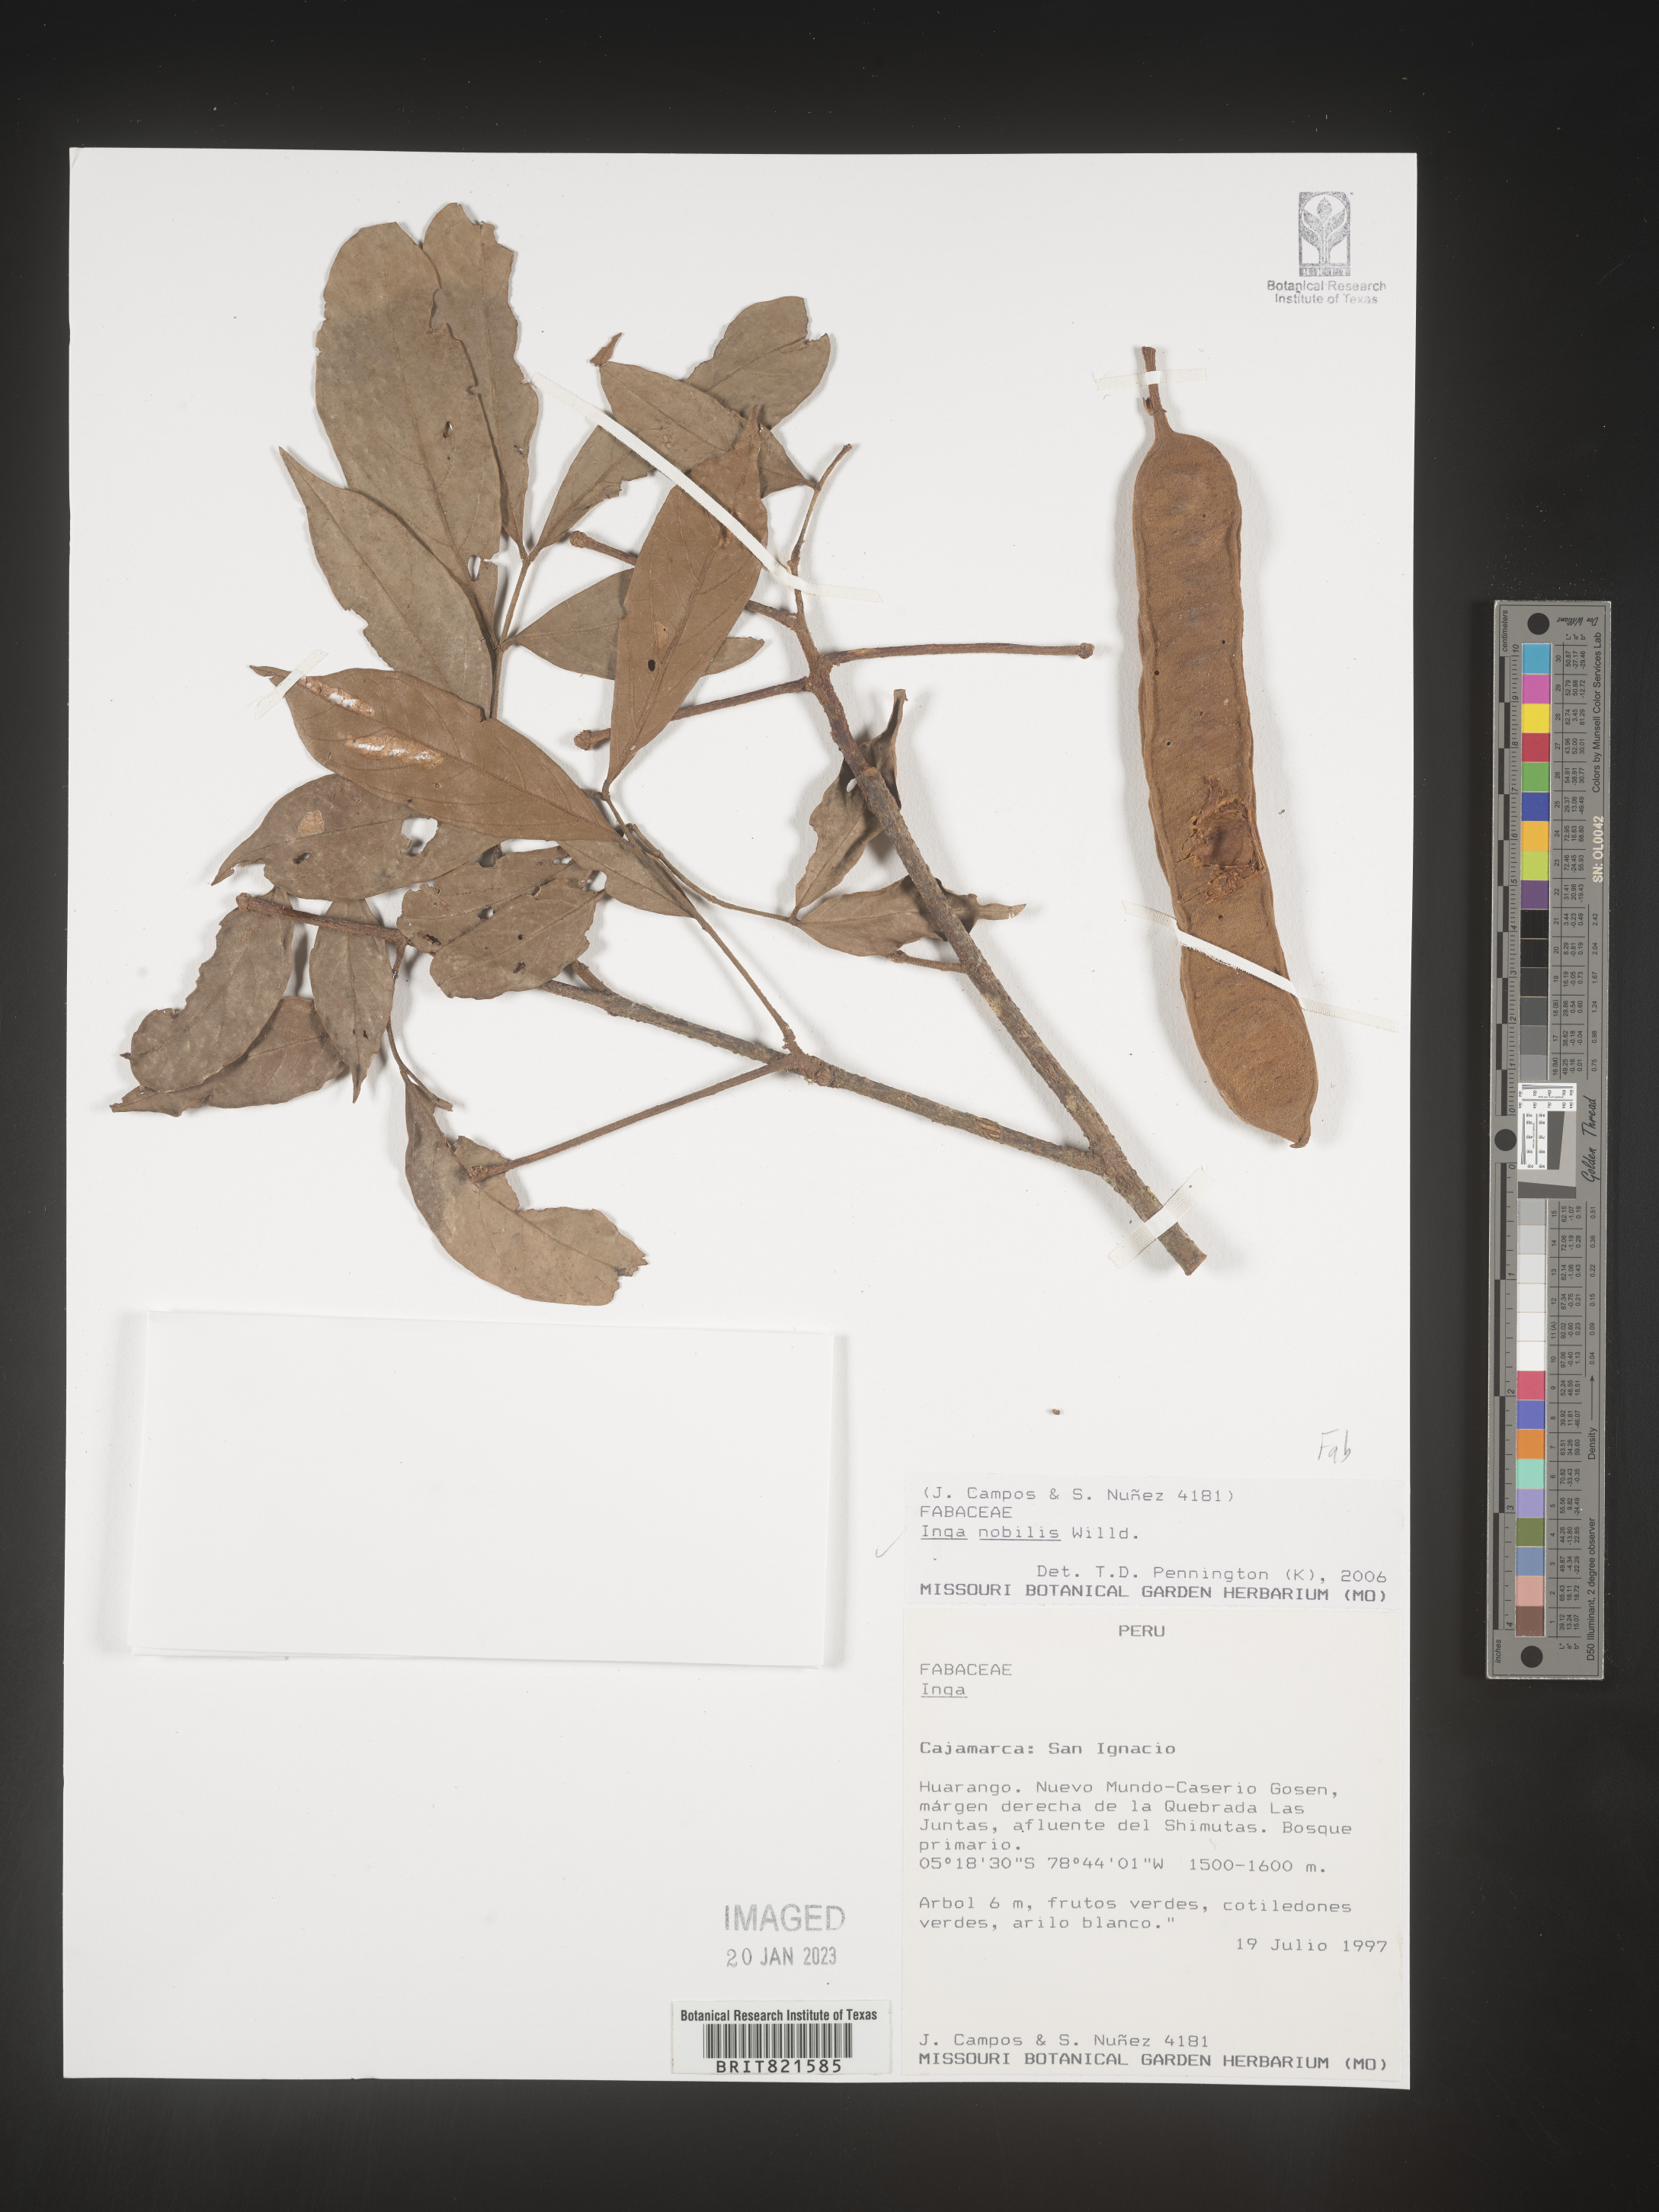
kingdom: Plantae
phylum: Tracheophyta
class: Magnoliopsida
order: Fabales
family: Fabaceae
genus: Inga
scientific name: Inga
